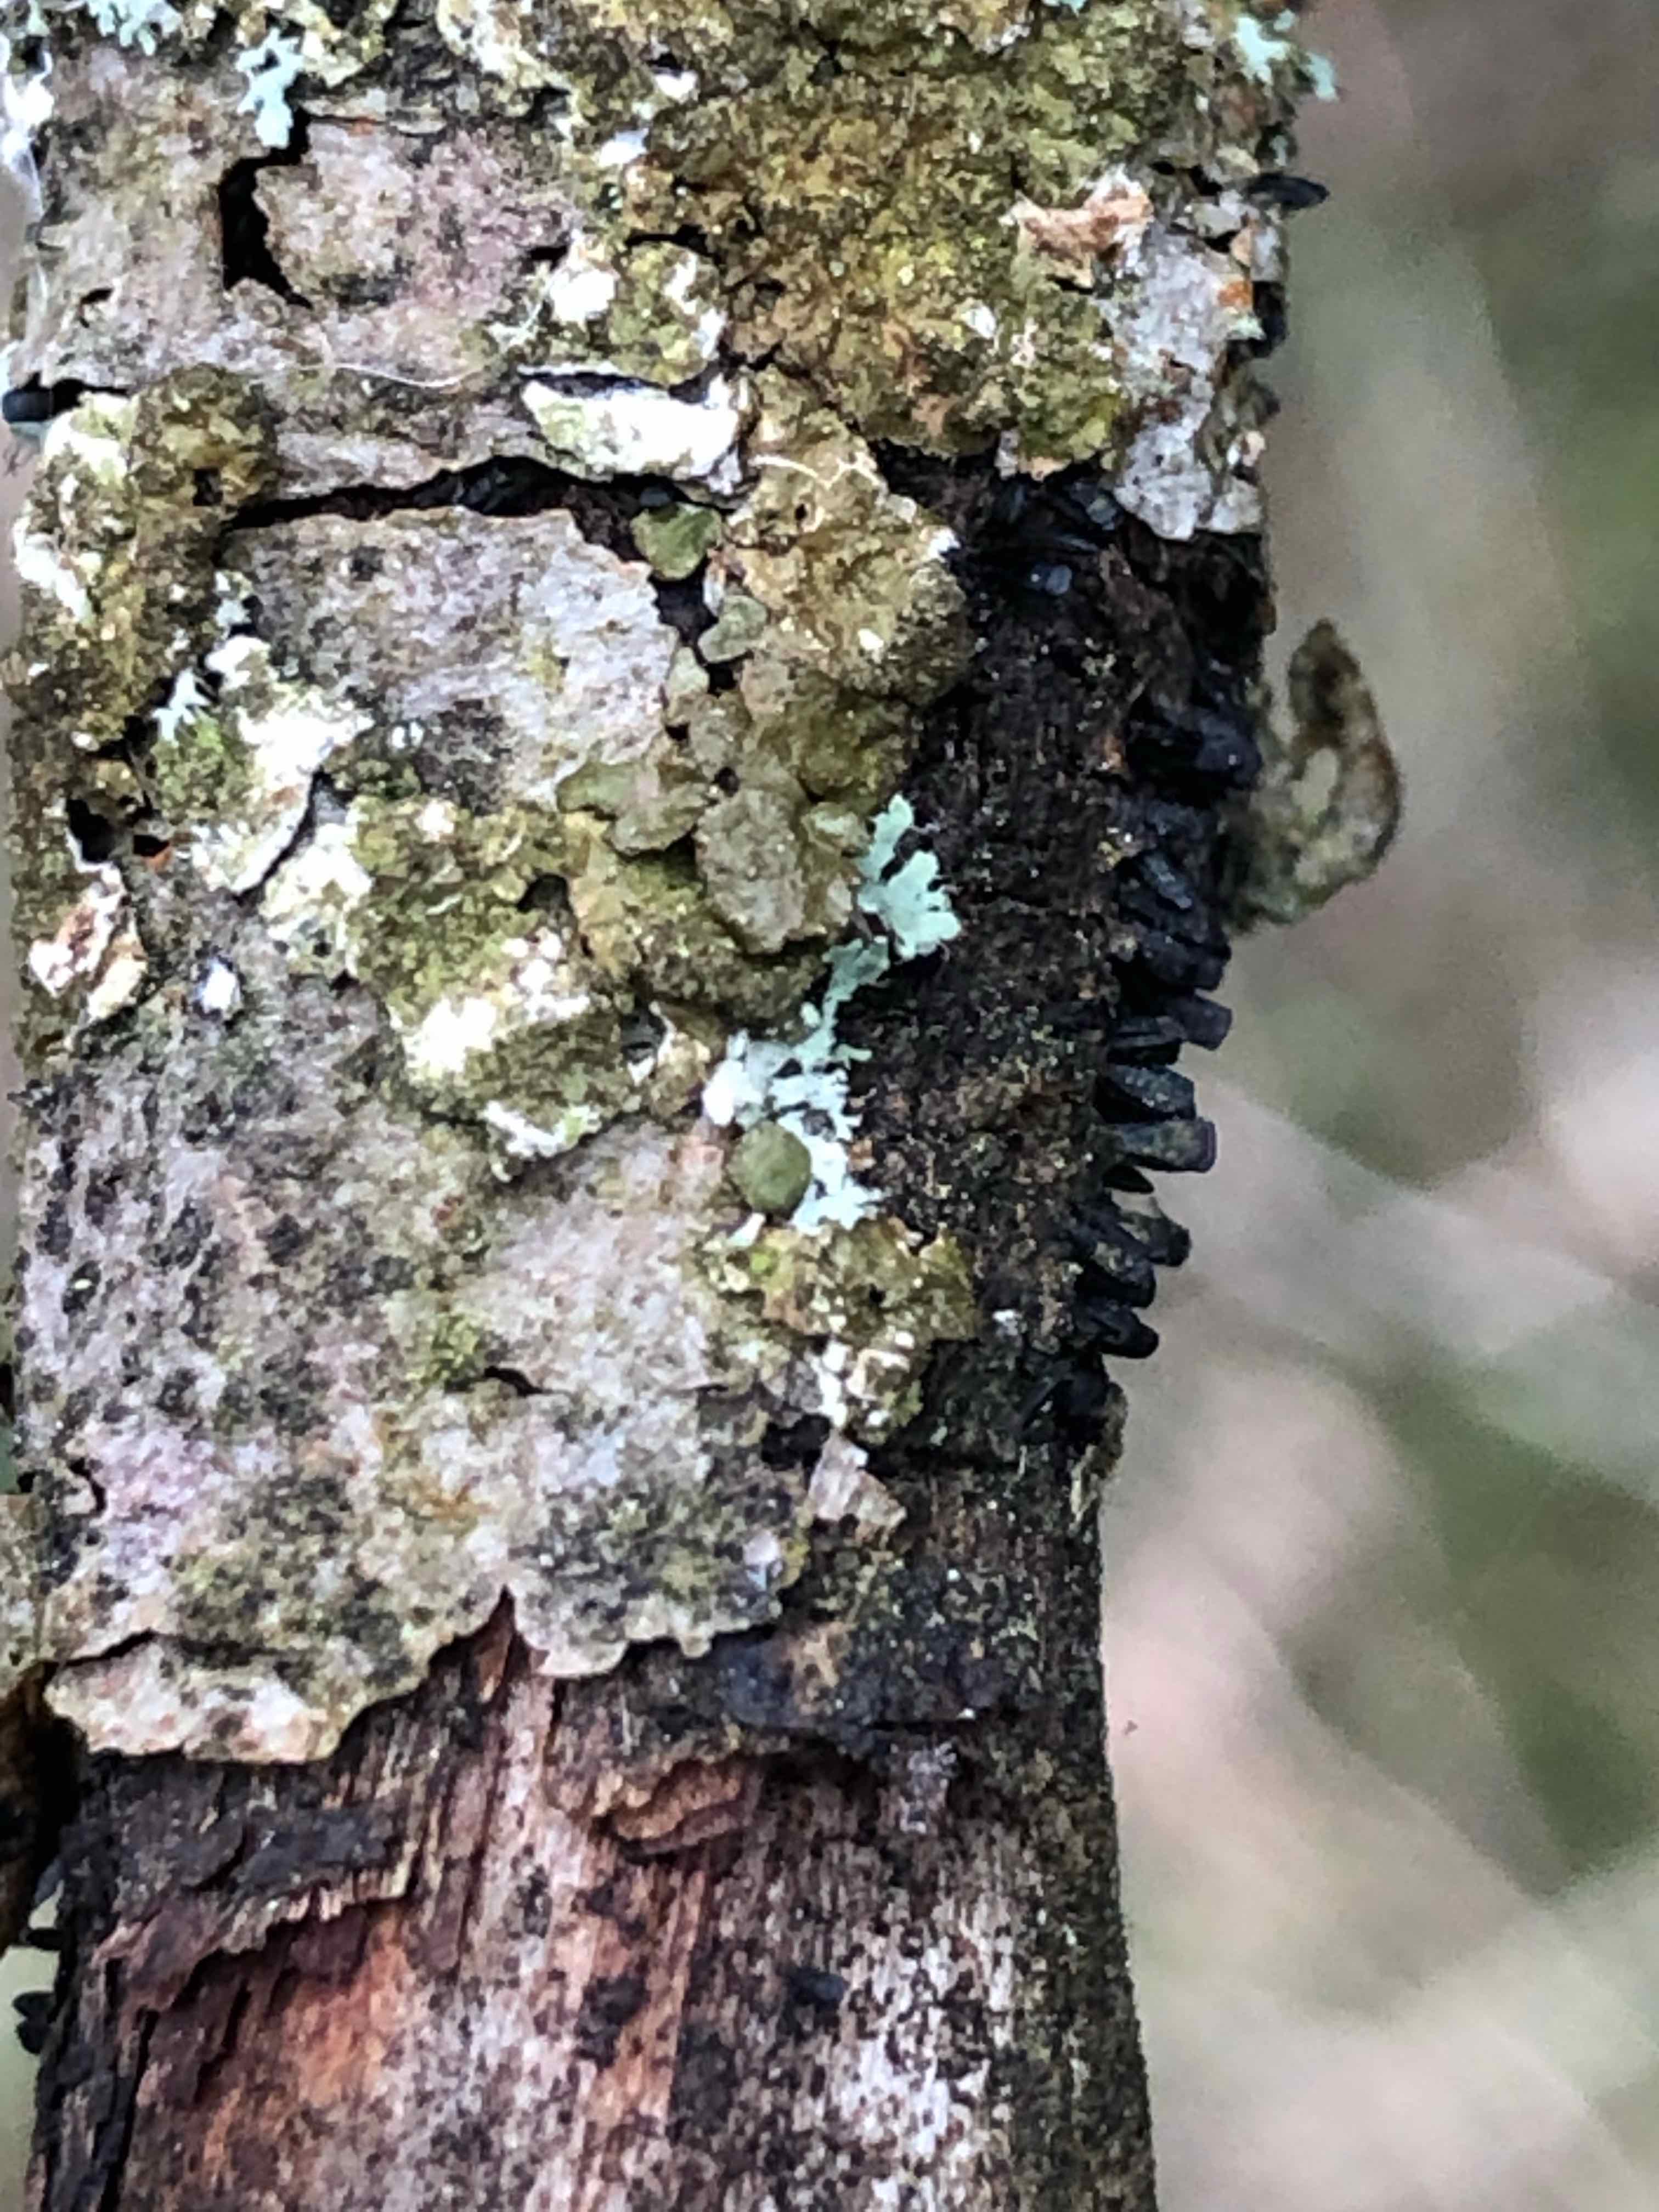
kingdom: Fungi
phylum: Ascomycota
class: Eurotiomycetes
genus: Glyphium
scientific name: Glyphium elatum
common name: kuløkse
